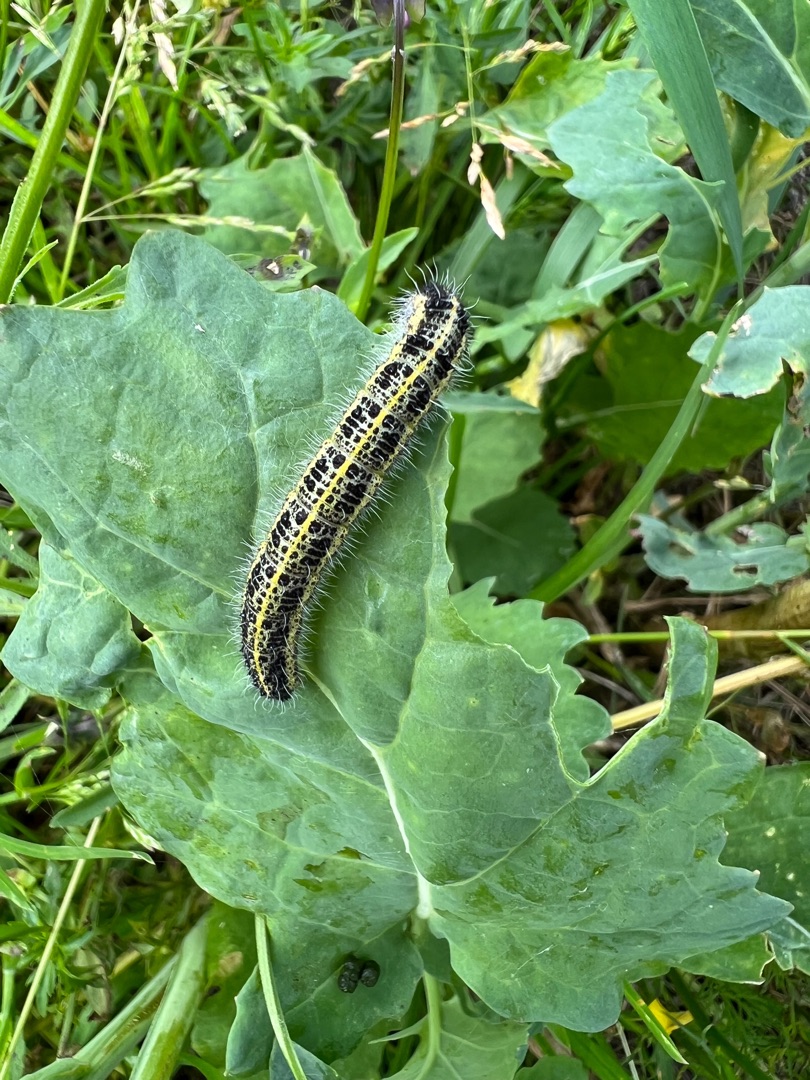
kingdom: Animalia
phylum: Arthropoda
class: Insecta
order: Lepidoptera
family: Pieridae
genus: Pieris
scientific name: Pieris brassicae
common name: Stor kålsommerfugl
